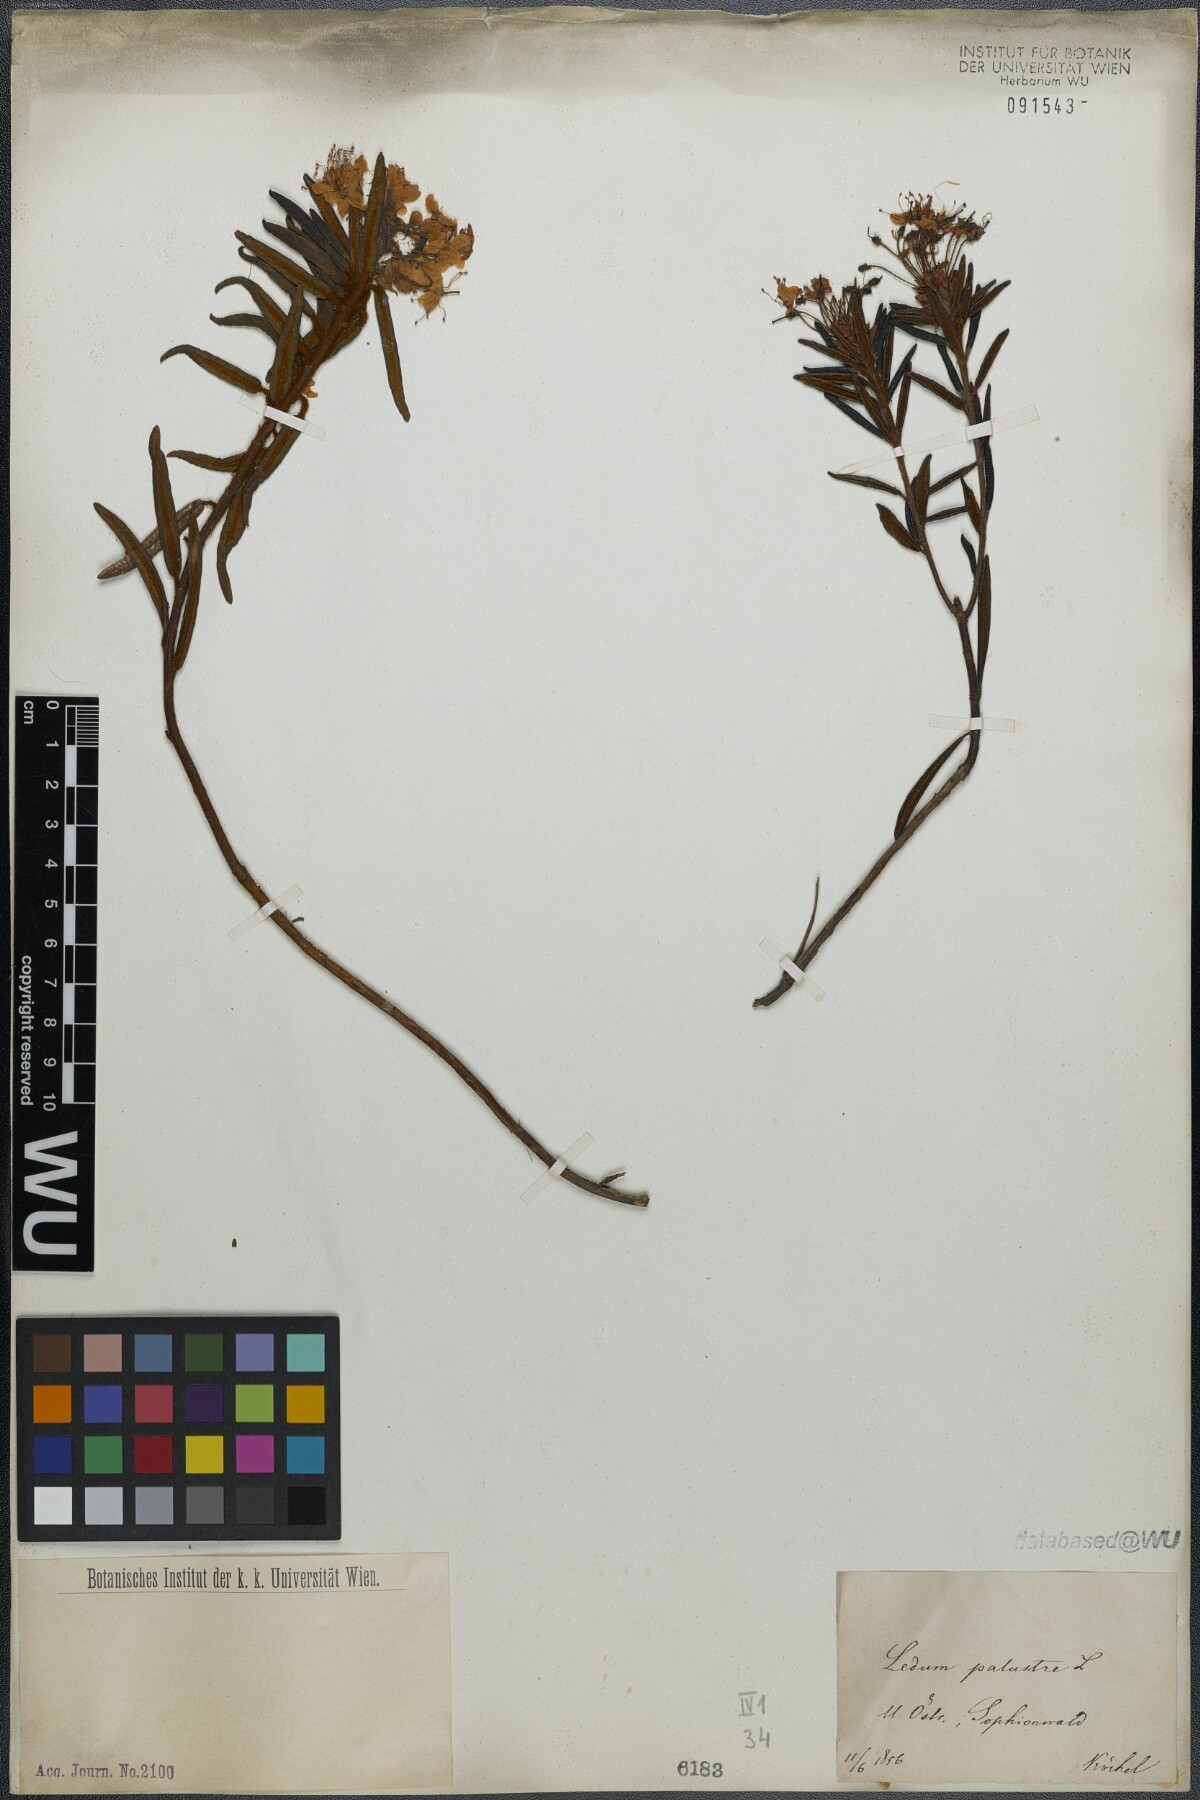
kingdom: Plantae
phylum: Tracheophyta
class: Magnoliopsida
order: Ericales
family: Ericaceae
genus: Rhododendron
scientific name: Rhododendron tomentosum
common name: Marsh labrador tea
